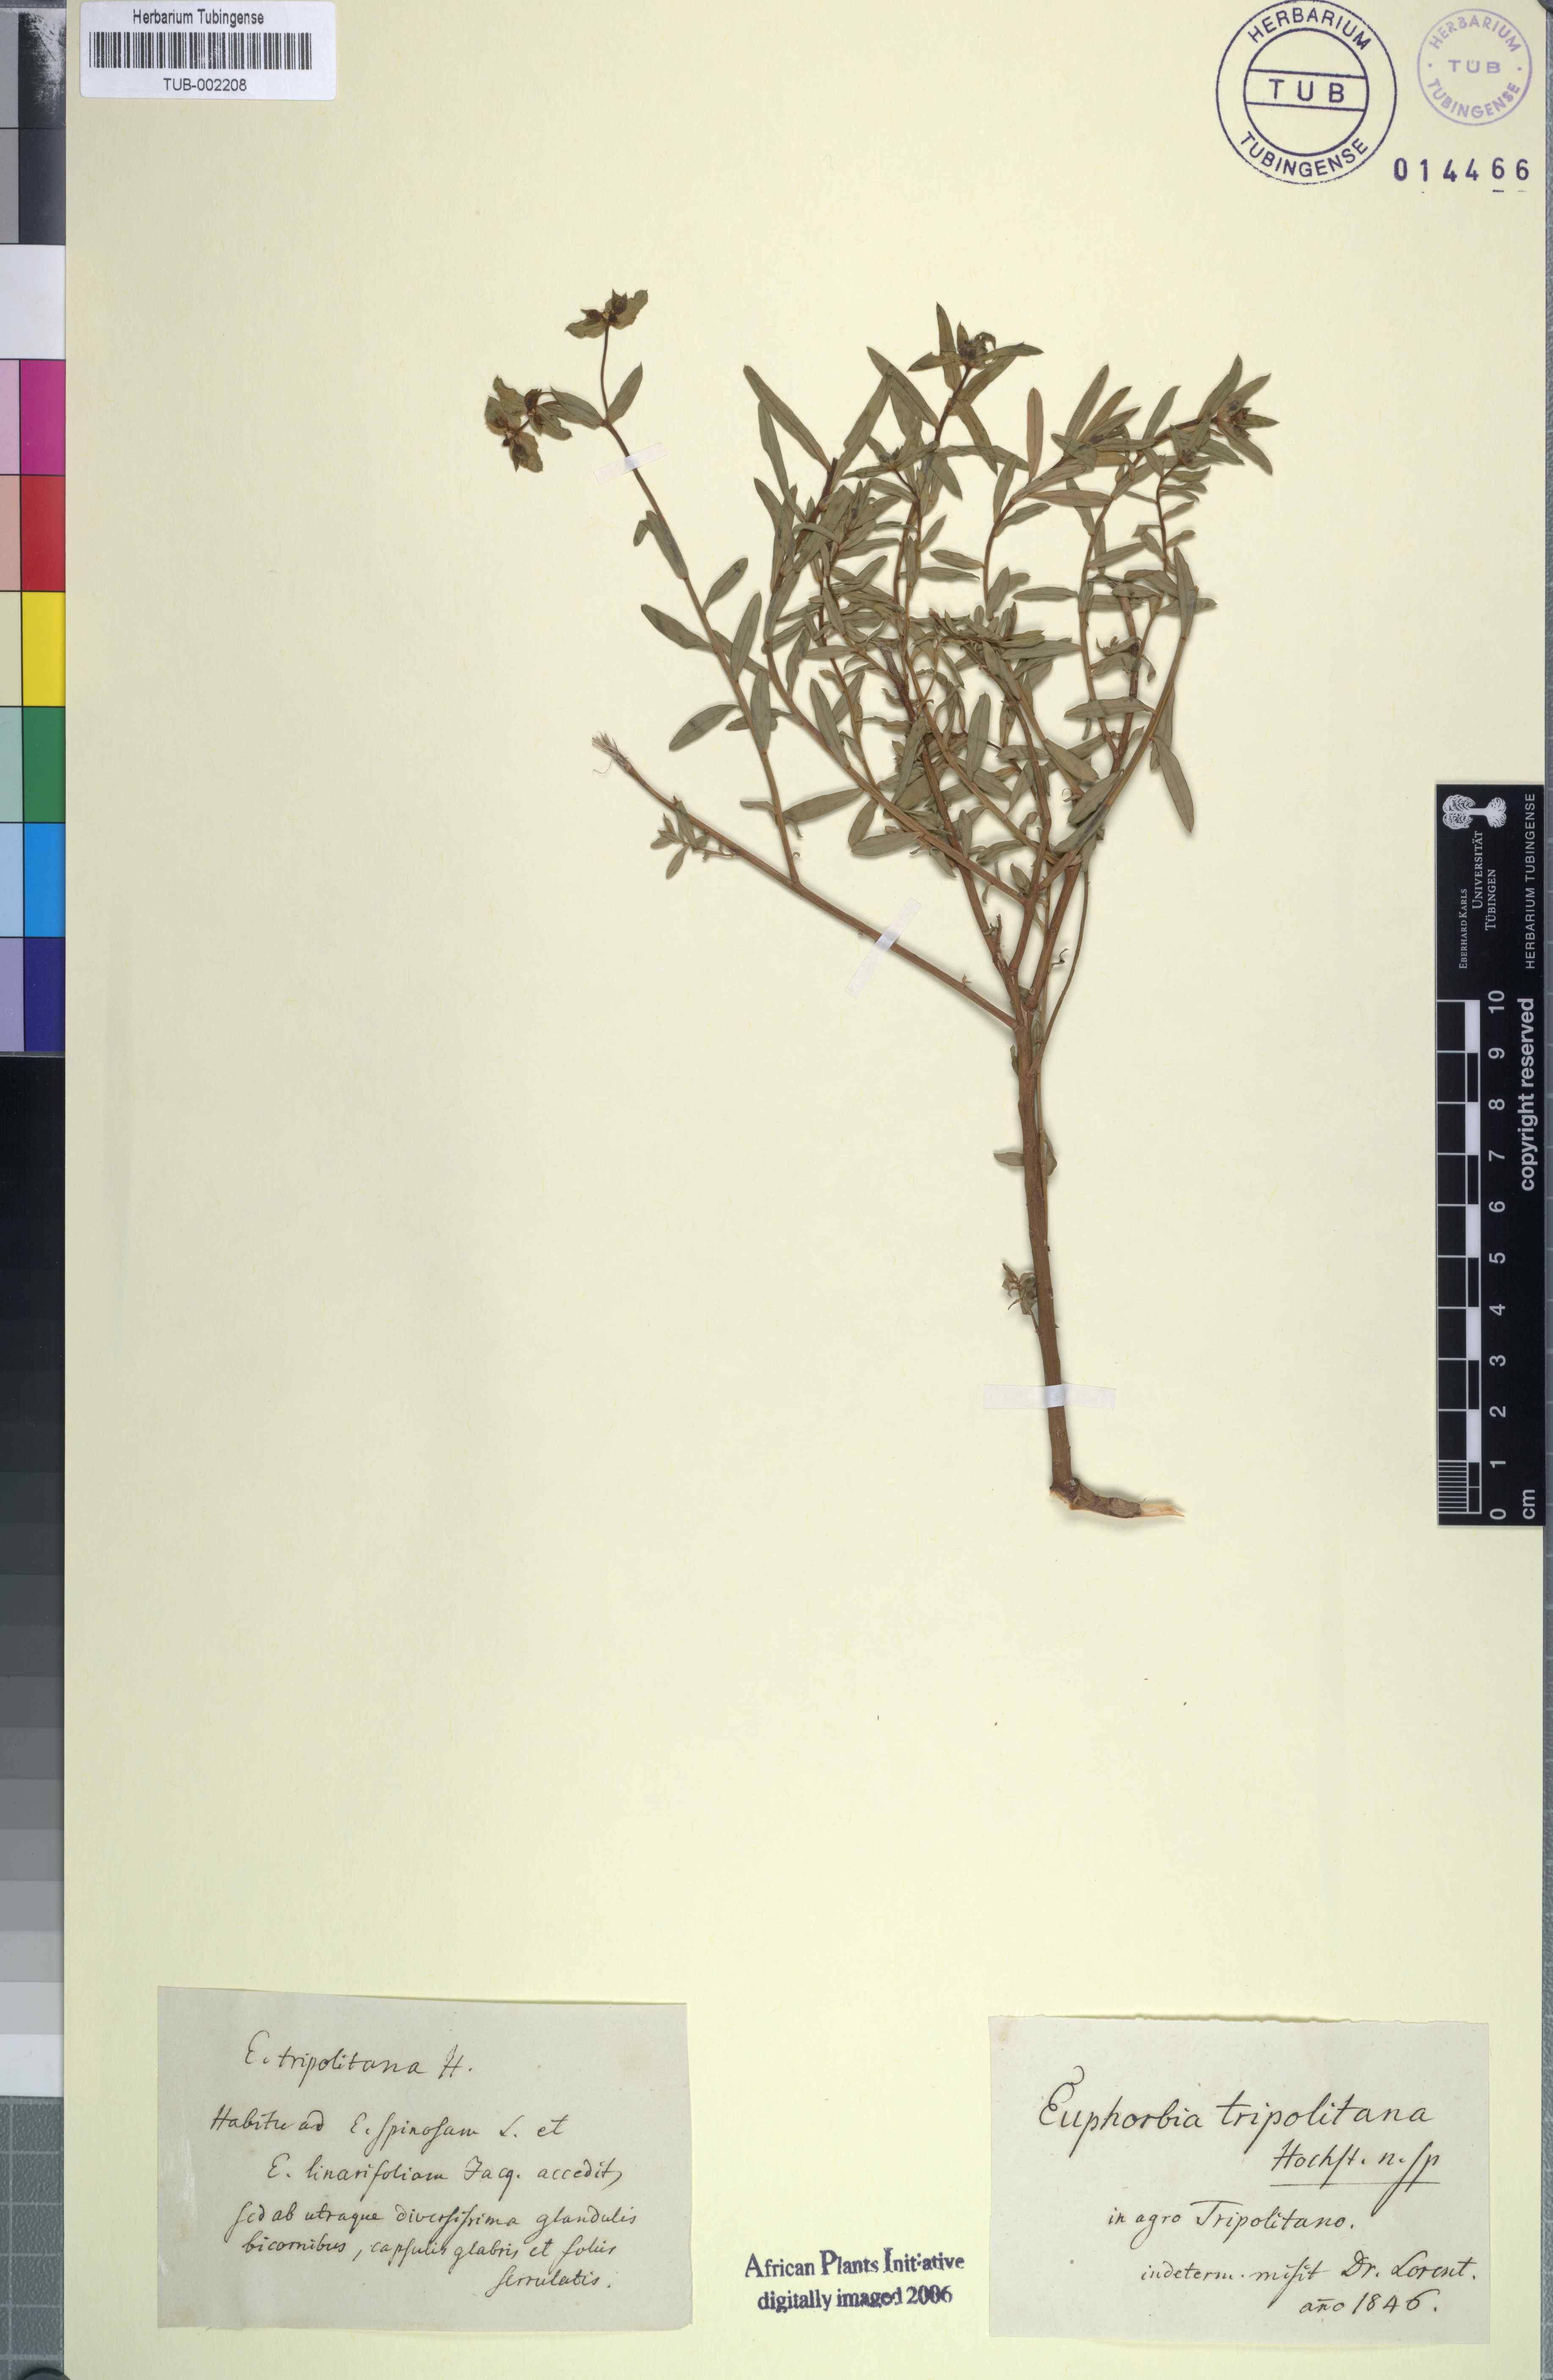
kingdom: Plantae
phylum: Tracheophyta
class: Magnoliopsida
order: Malpighiales
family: Euphorbiaceae
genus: Euphorbia
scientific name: Euphorbia
